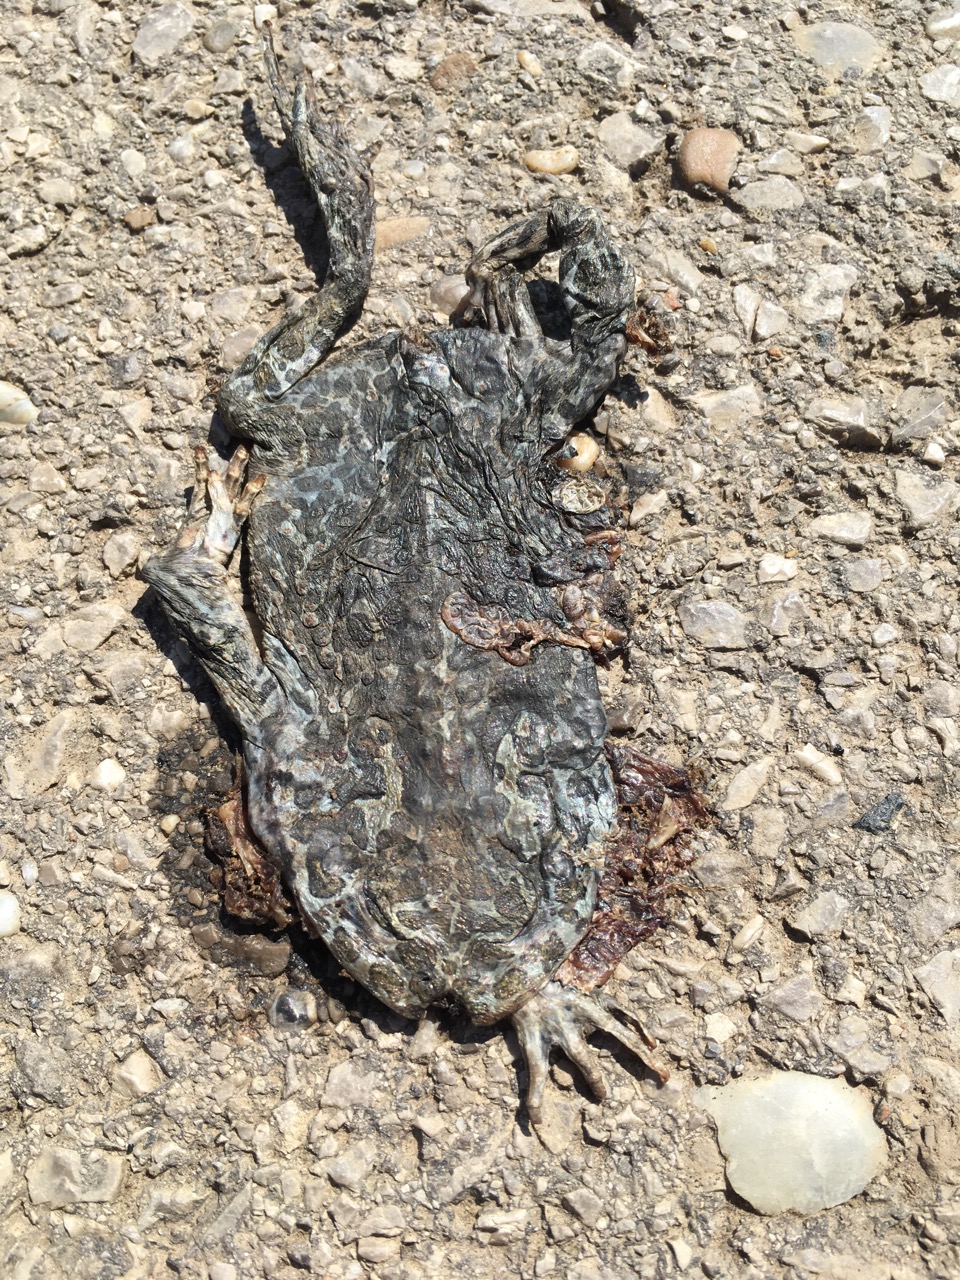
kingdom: Animalia
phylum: Chordata
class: Amphibia
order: Anura
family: Bufonidae
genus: Bufotes
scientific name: Bufotes viridis
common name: European green toad
